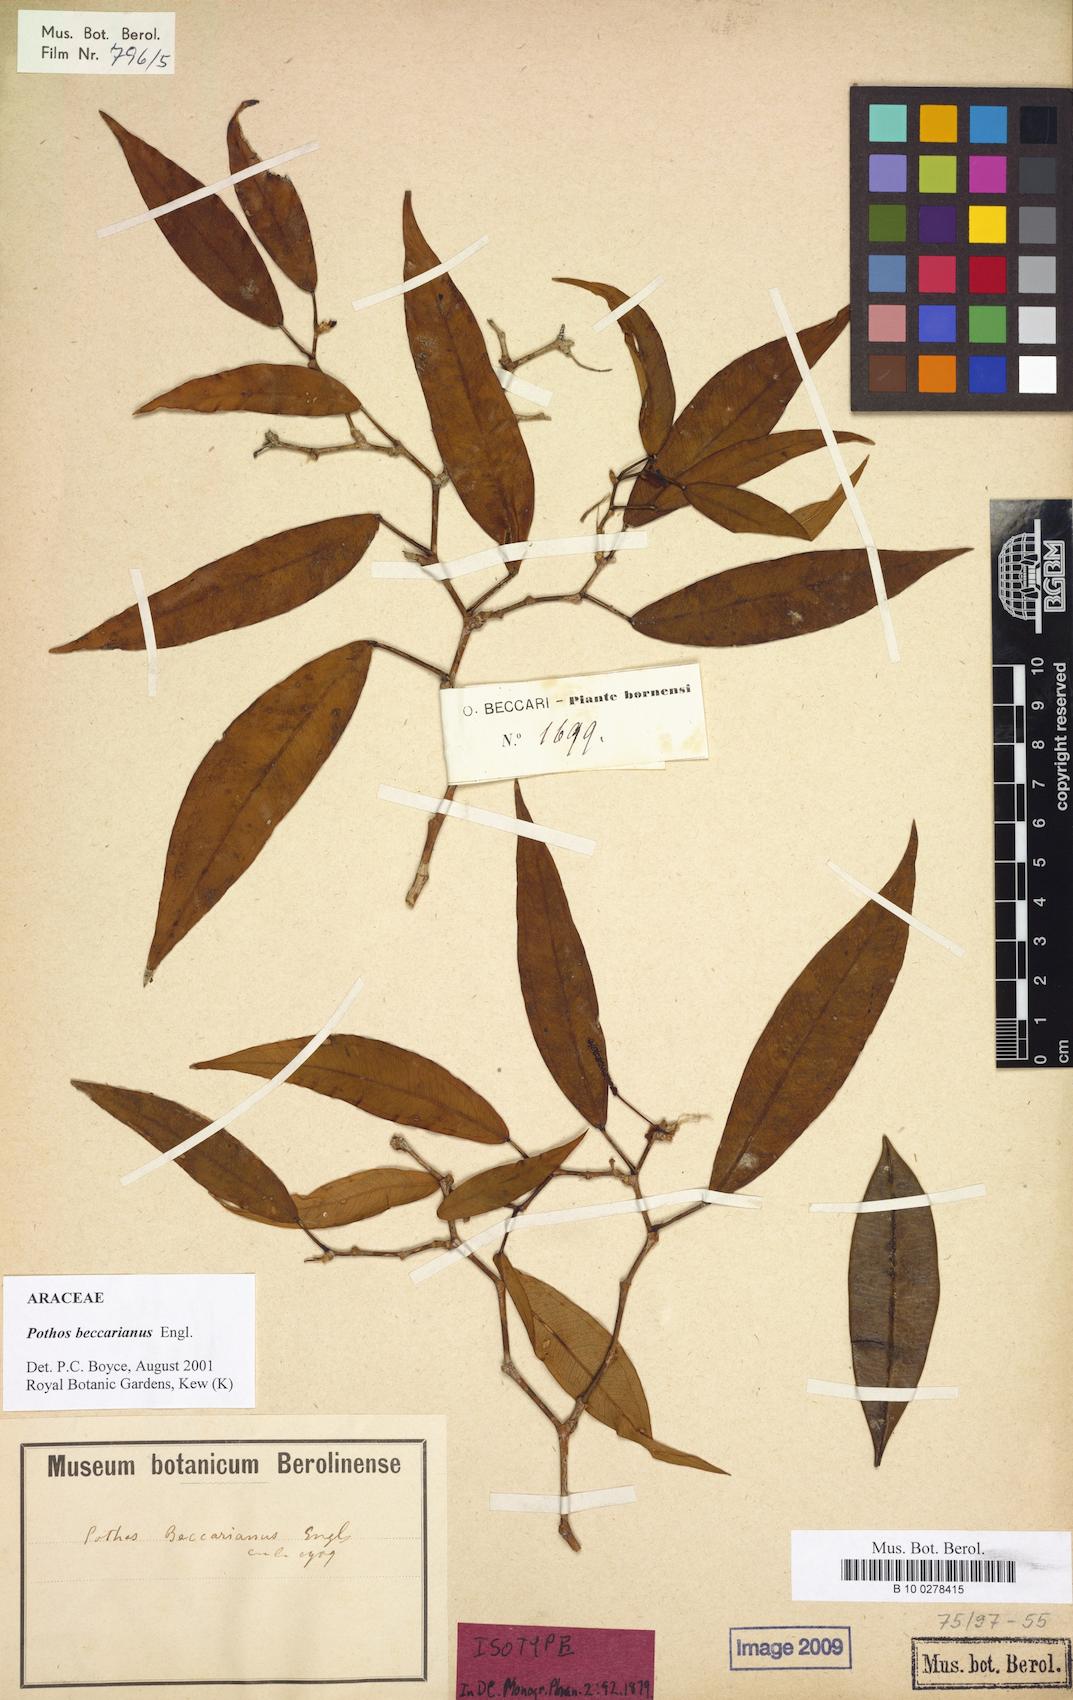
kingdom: Plantae
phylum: Tracheophyta
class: Liliopsida
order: Alismatales
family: Araceae
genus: Pothos
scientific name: Pothos beccarianus
